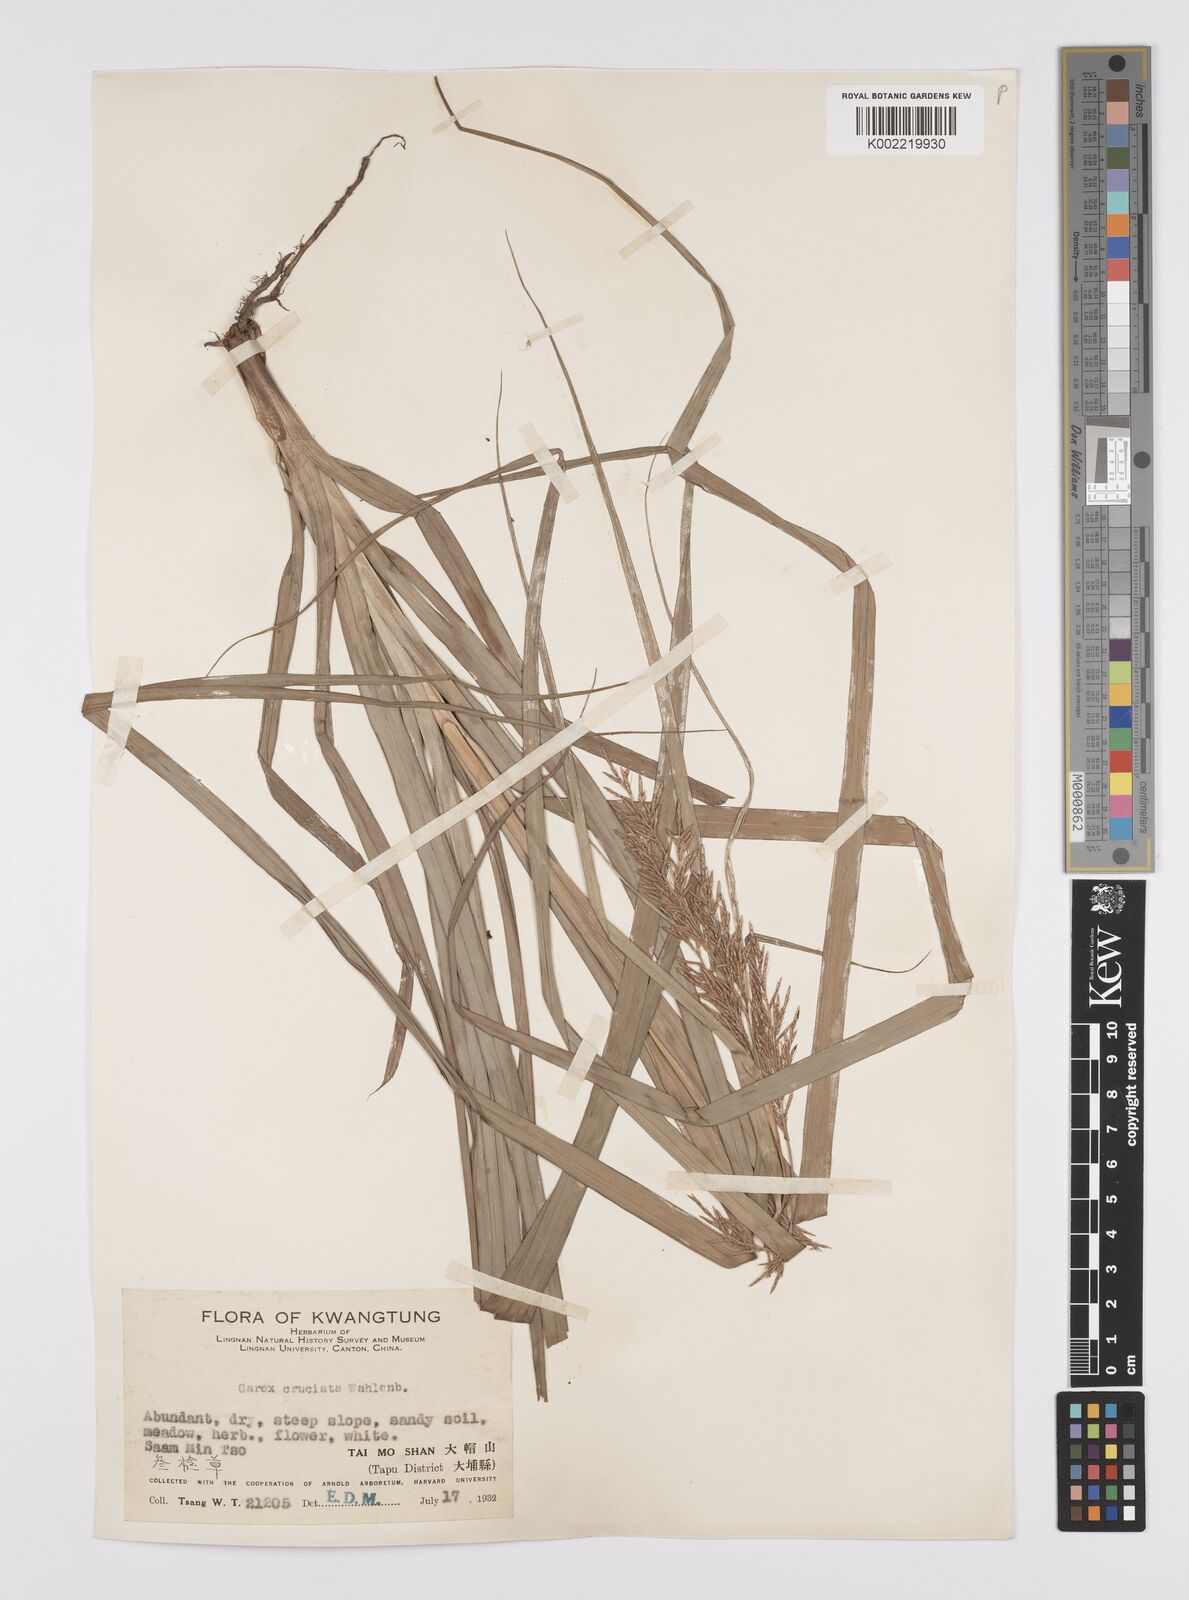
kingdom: Plantae
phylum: Tracheophyta
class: Liliopsida
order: Poales
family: Cyperaceae
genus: Carex
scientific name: Carex cruciata
